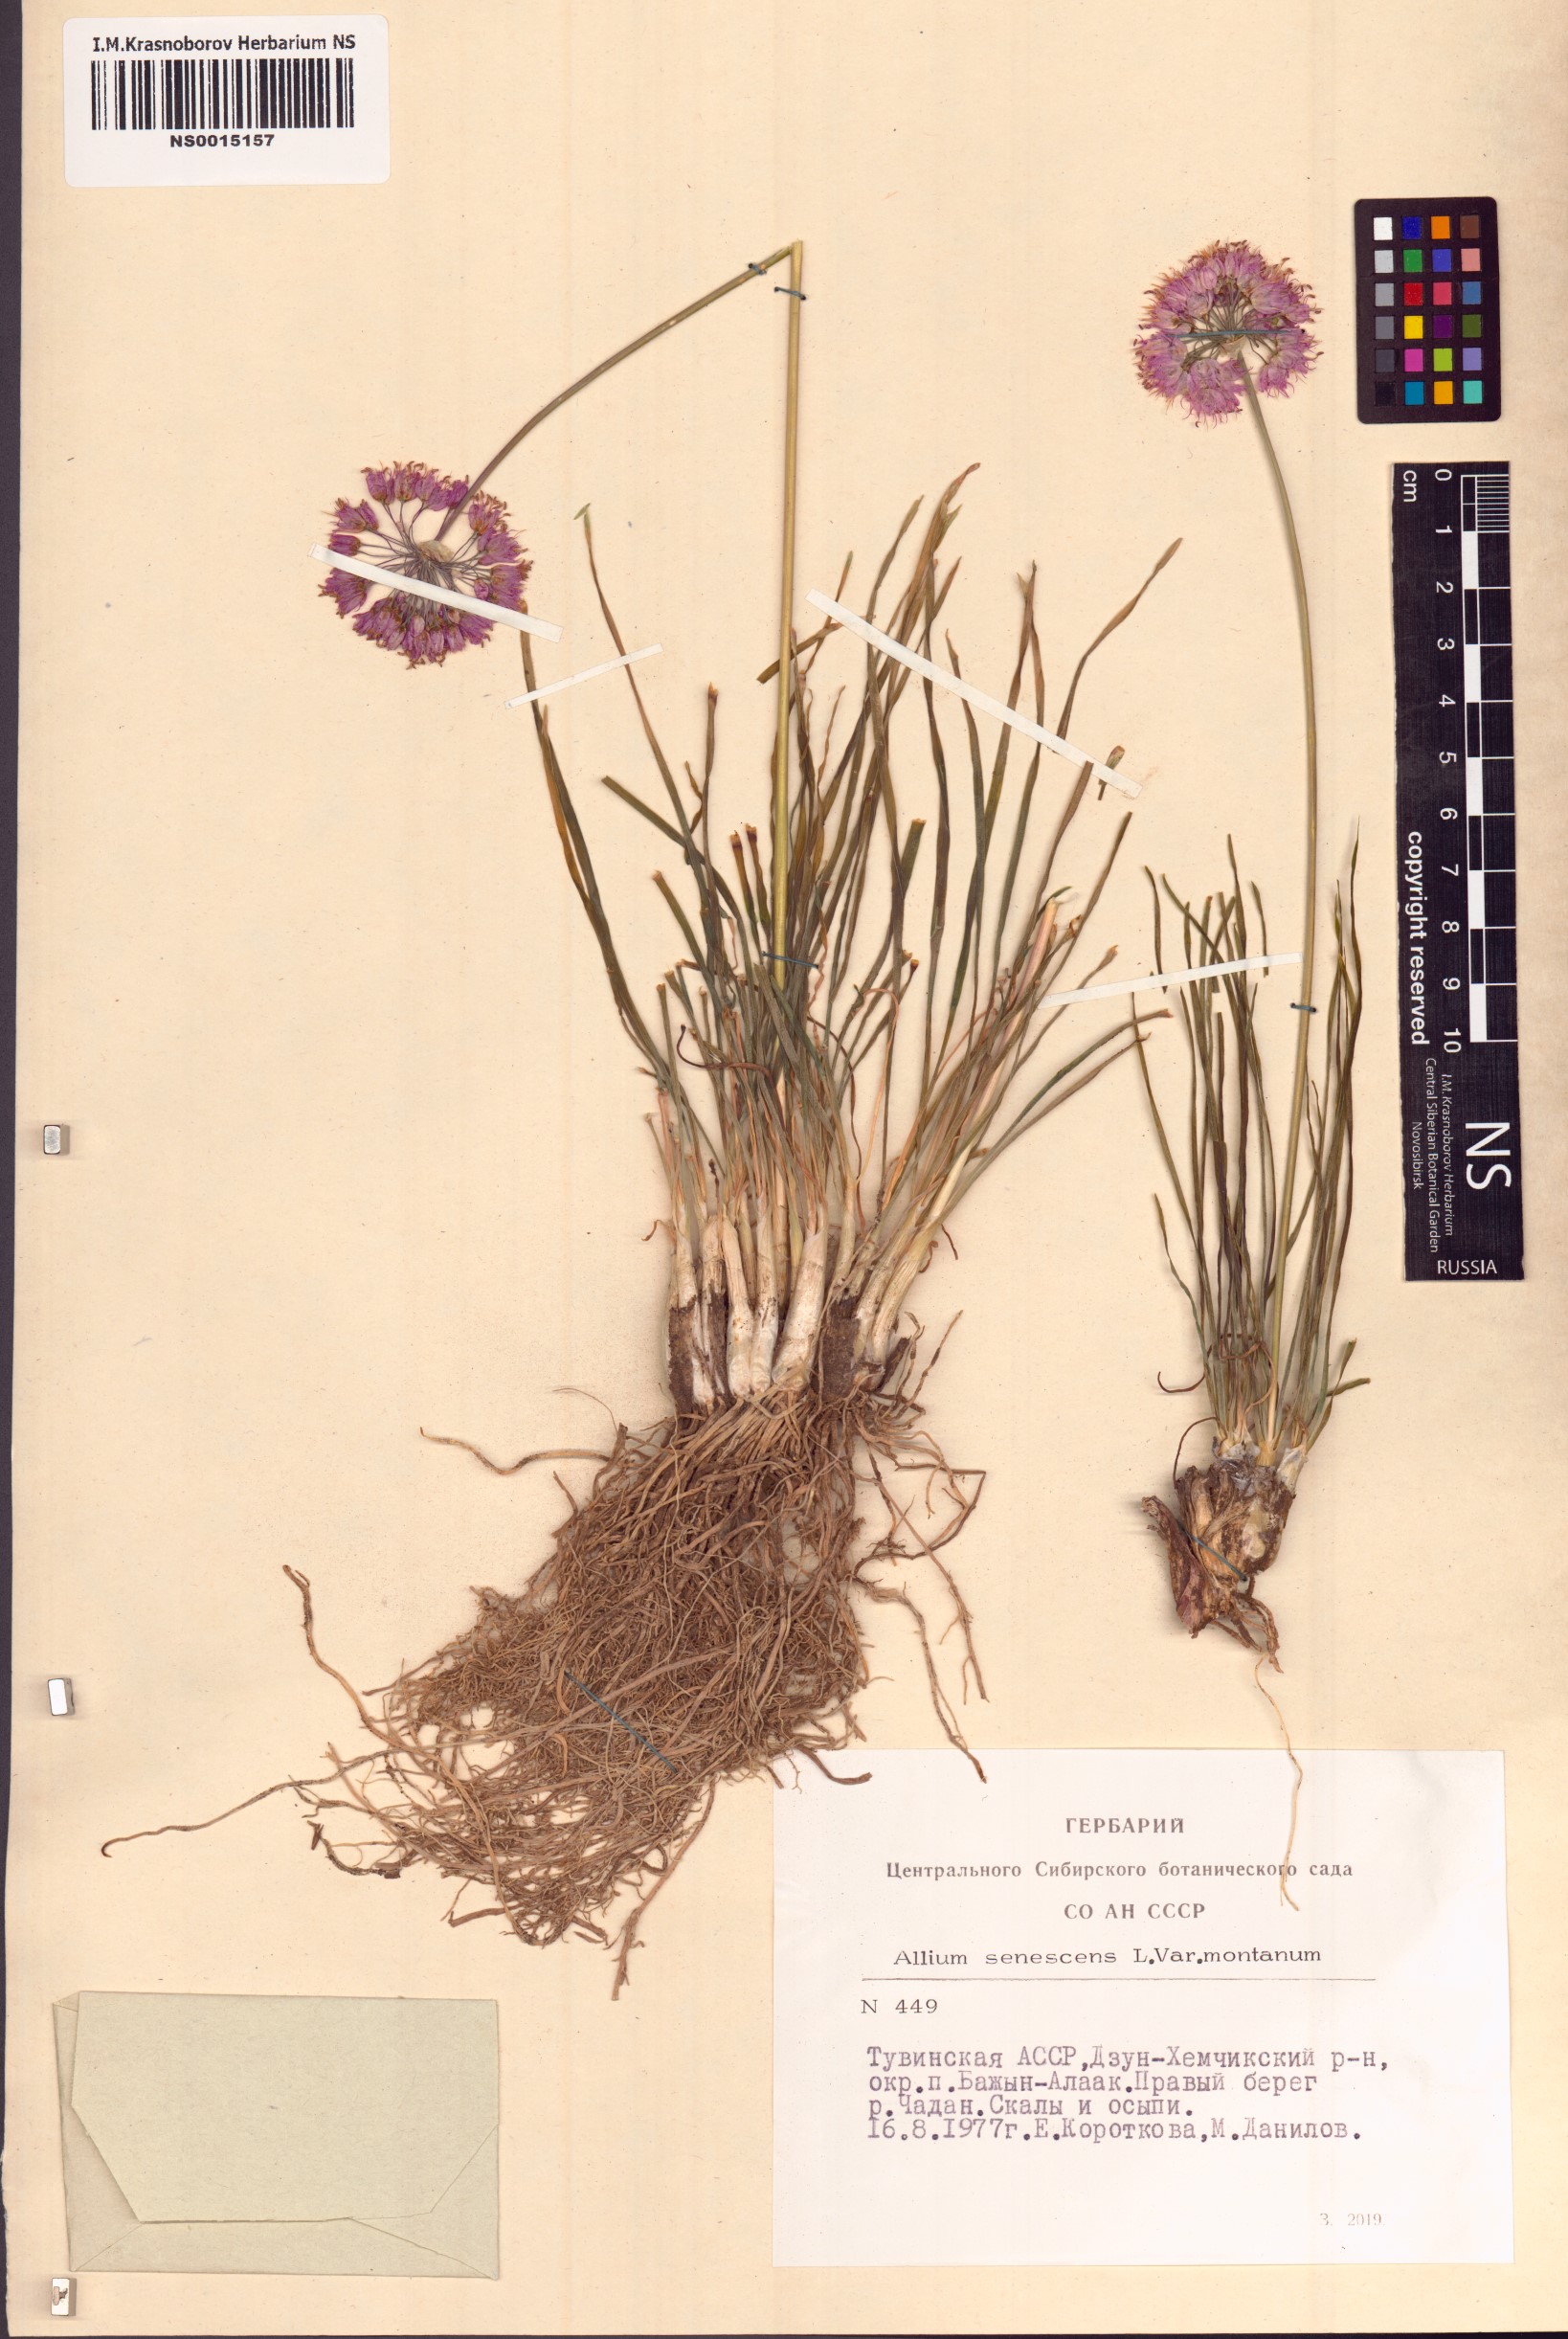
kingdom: Plantae
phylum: Tracheophyta
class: Liliopsida
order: Asparagales
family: Amaryllidaceae
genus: Allium
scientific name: Allium lusitanicum
